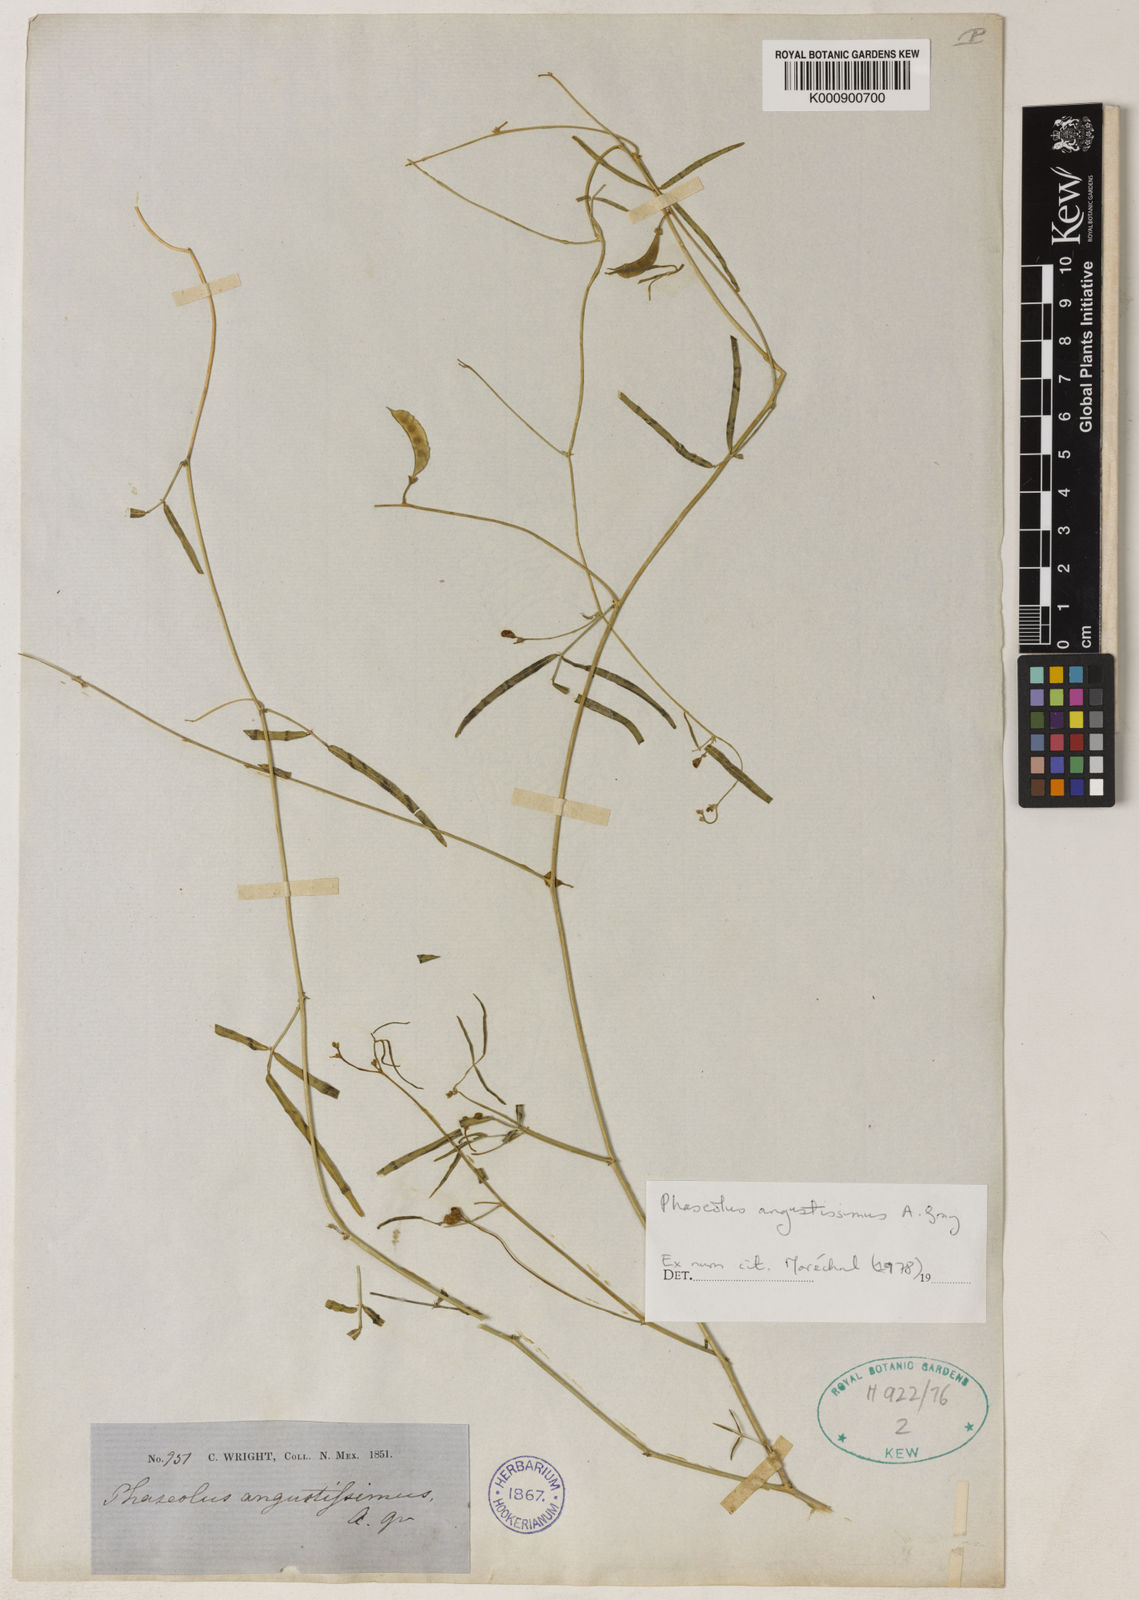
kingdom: Plantae
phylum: Tracheophyta
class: Magnoliopsida
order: Fabales
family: Fabaceae
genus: Phaseolus
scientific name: Phaseolus angustissimus
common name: Slimleaf bean
